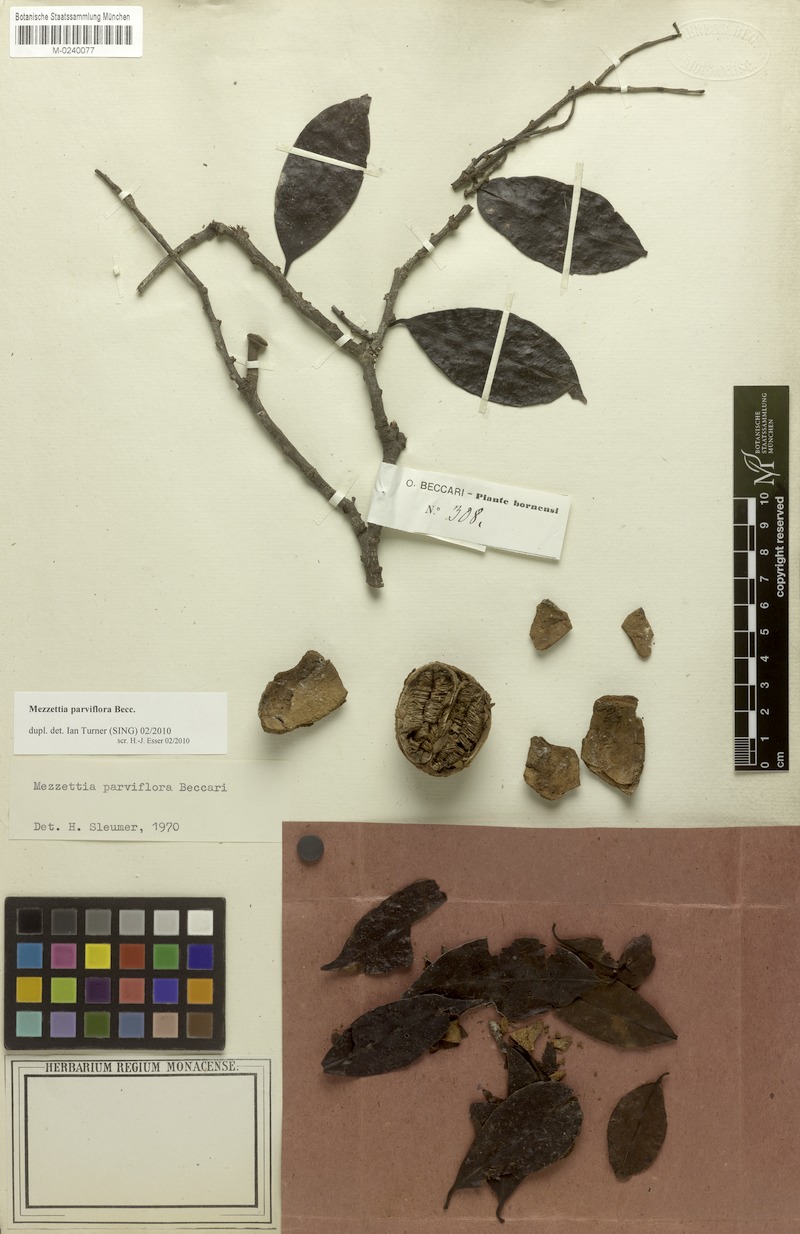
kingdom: Plantae
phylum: Tracheophyta
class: Magnoliopsida
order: Magnoliales
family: Annonaceae
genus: Mezzettia
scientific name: Mezzettia parviflora
